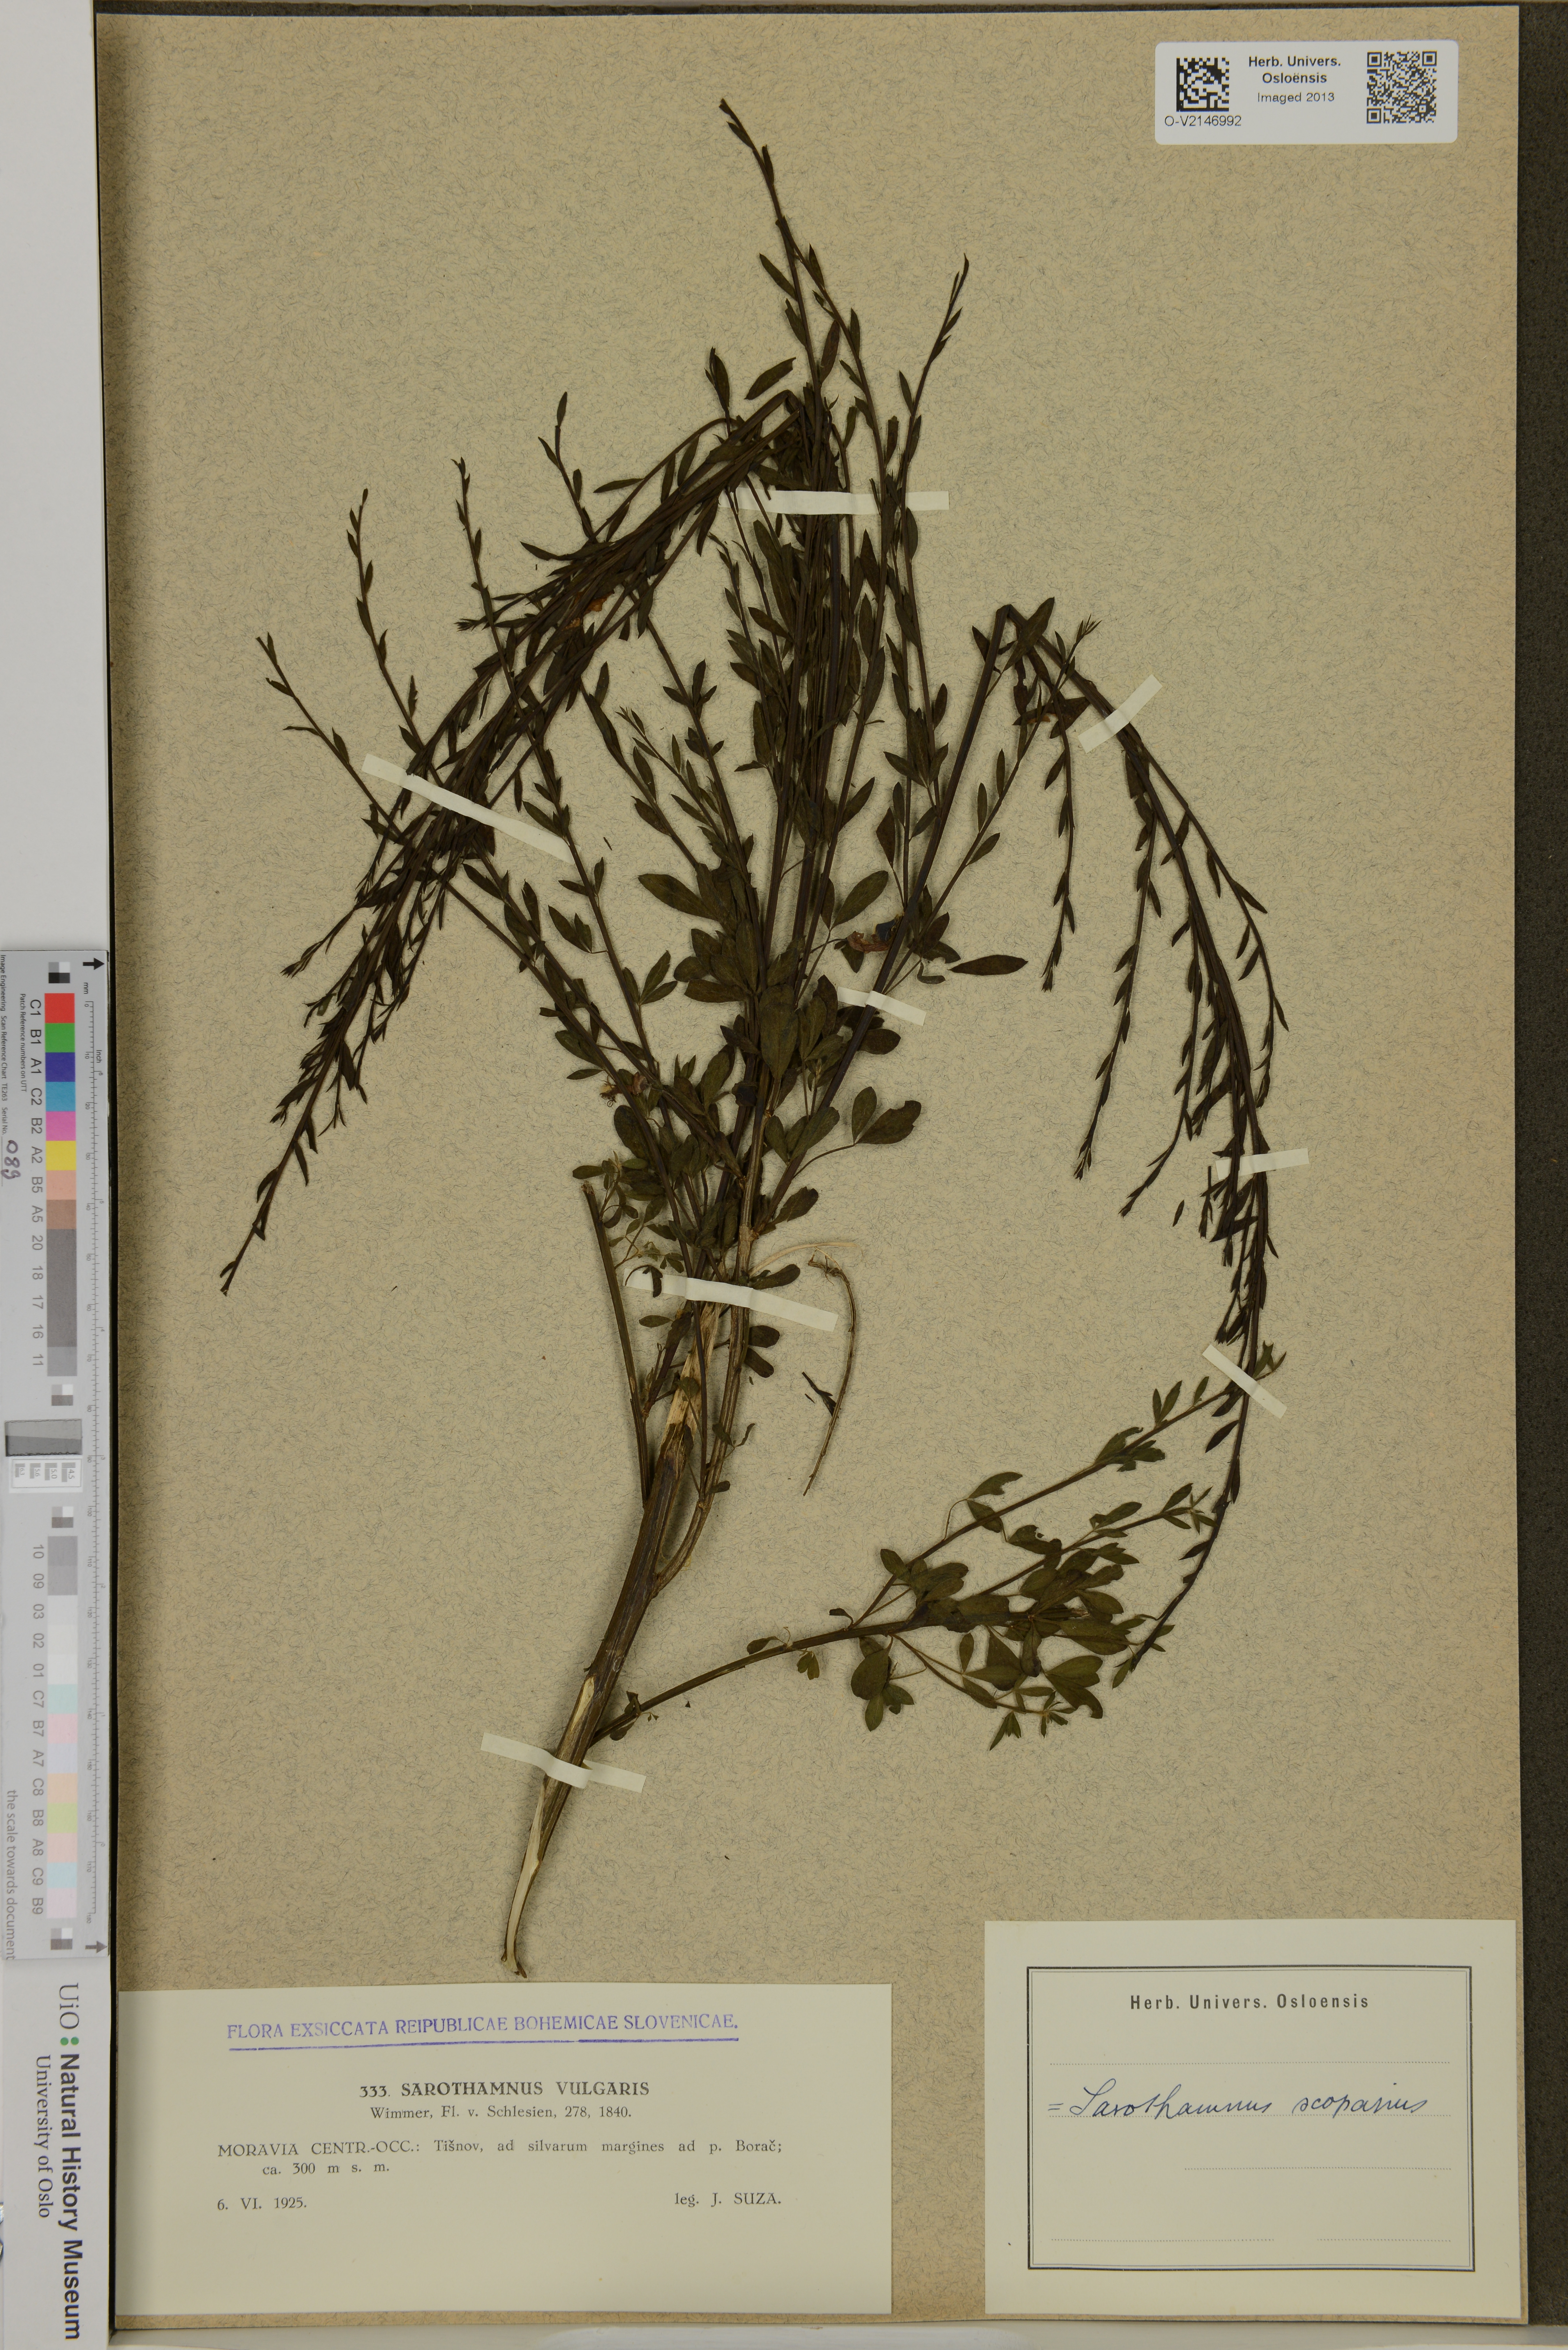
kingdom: Plantae
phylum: Tracheophyta
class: Magnoliopsida
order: Fabales
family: Fabaceae
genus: Cytisus
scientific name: Cytisus scoparius
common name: Scotch broom
